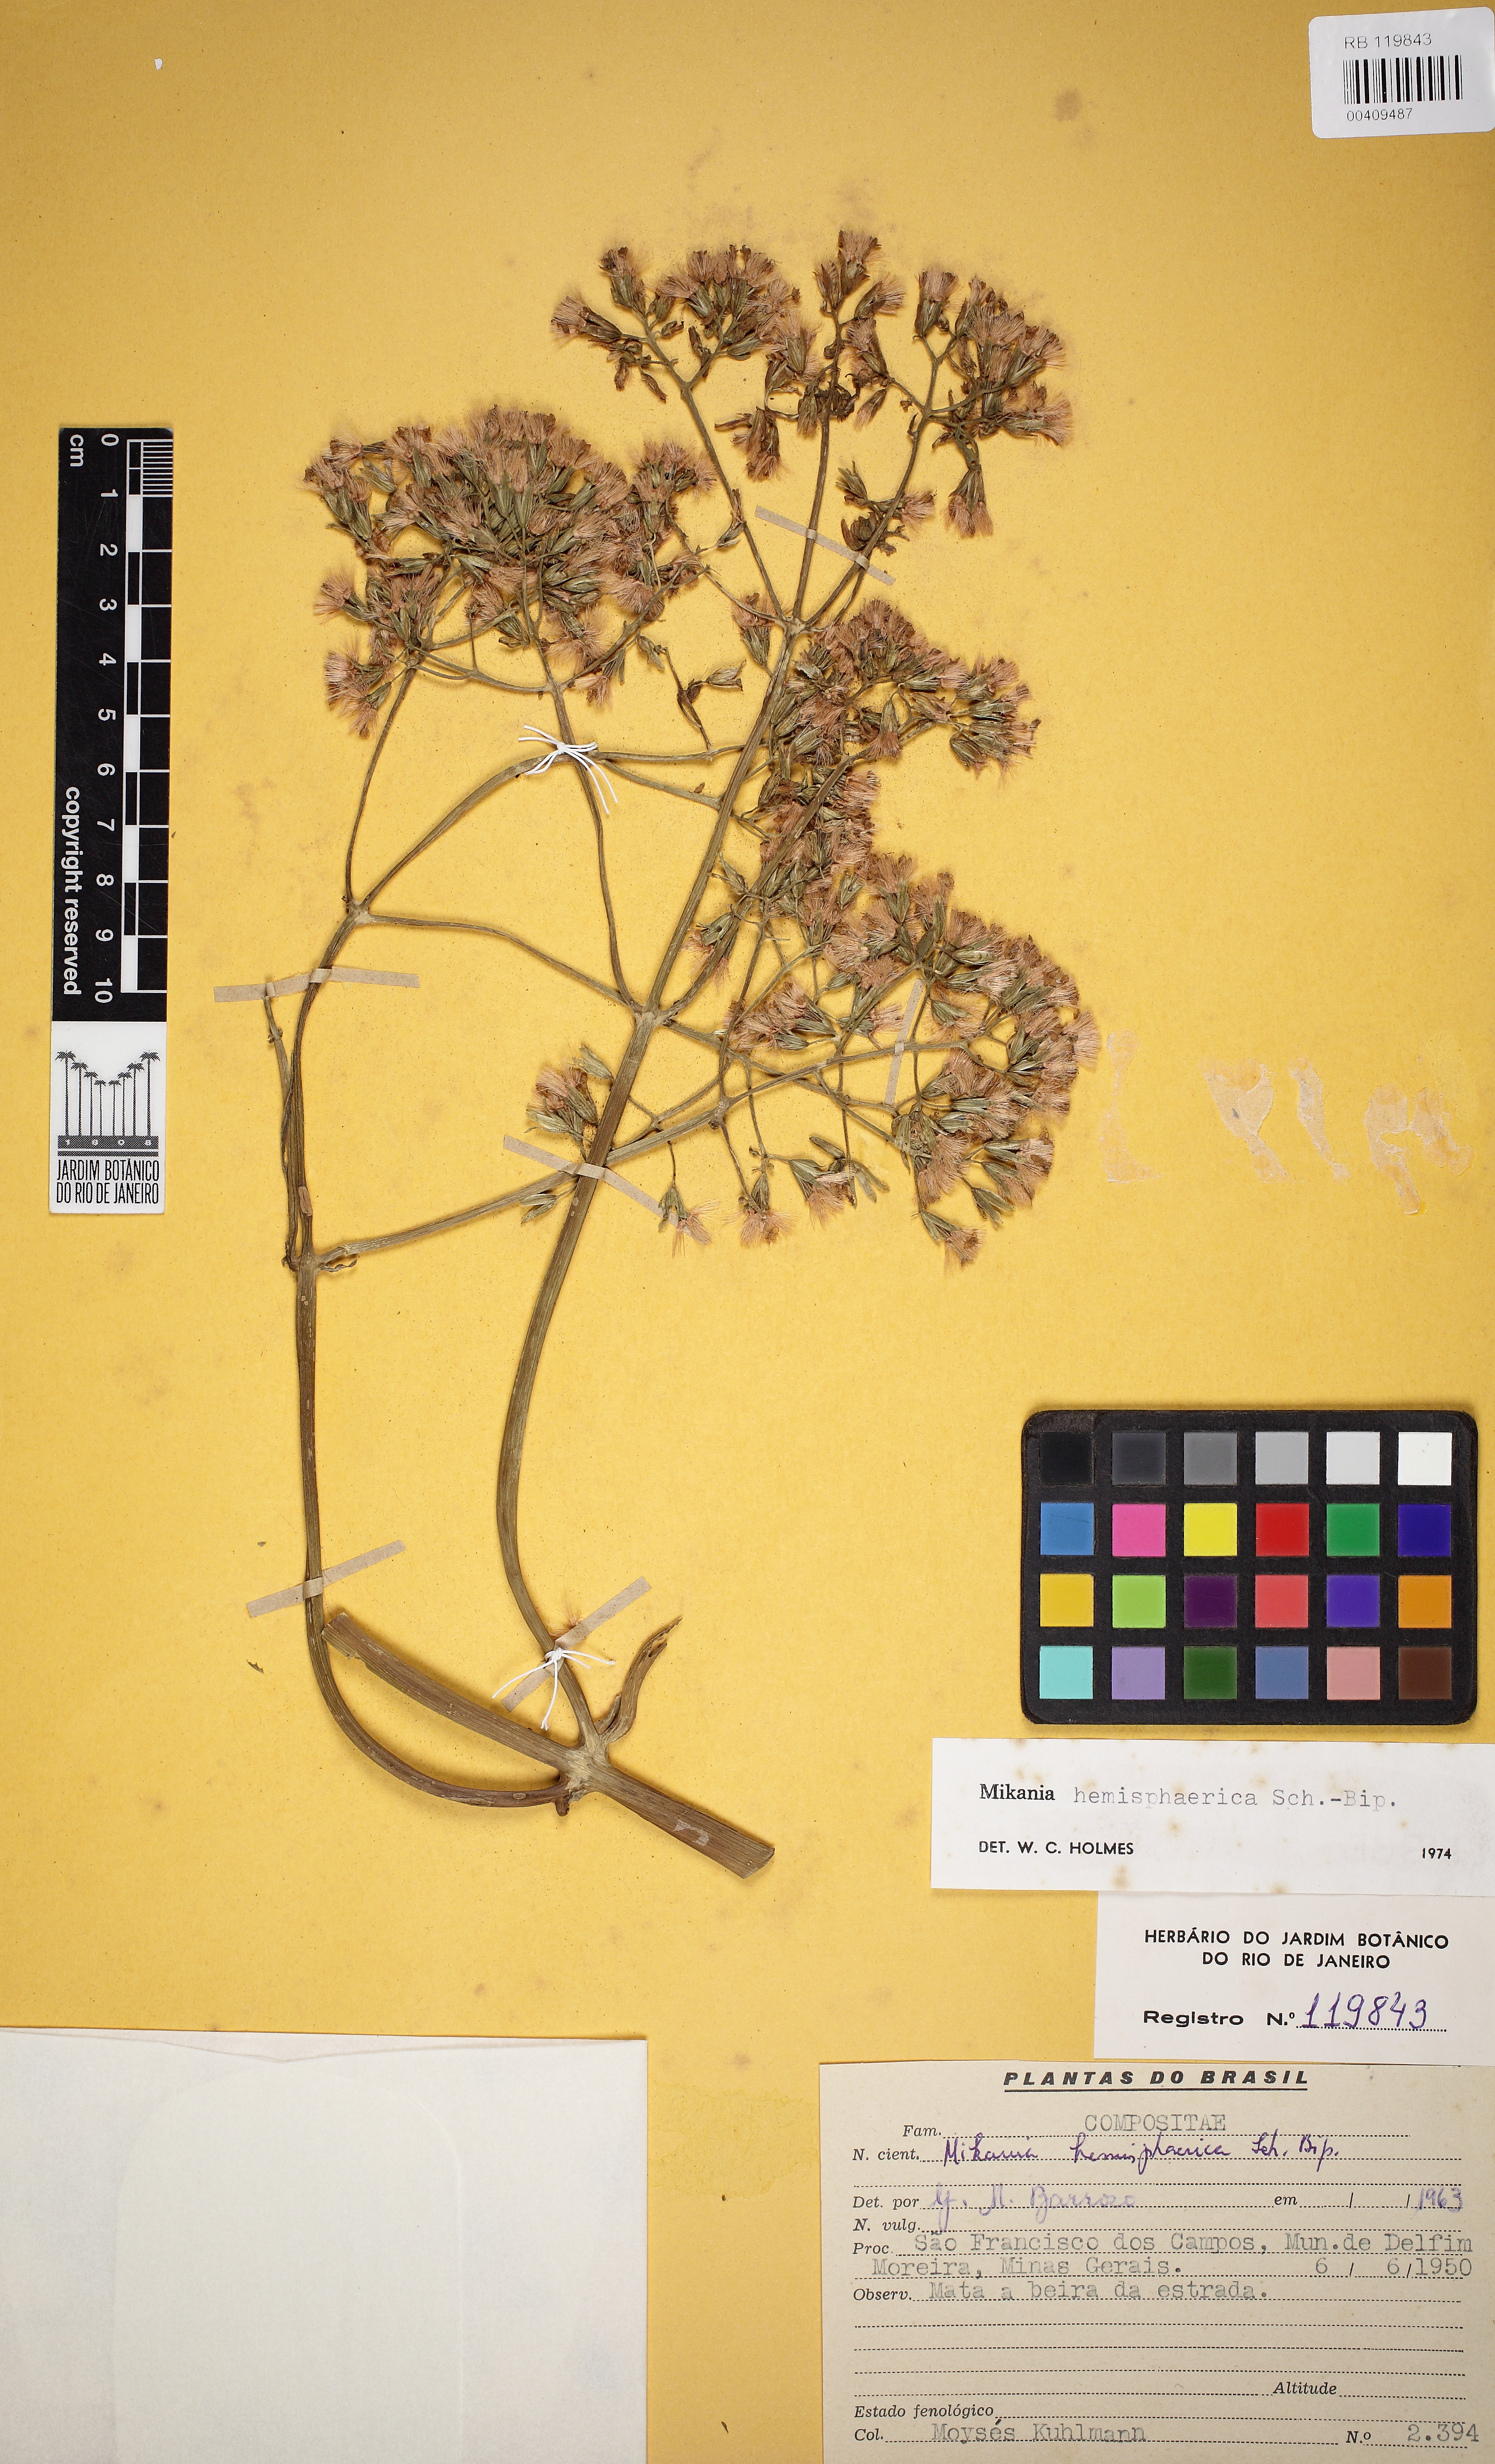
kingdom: Plantae
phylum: Tracheophyta
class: Magnoliopsida
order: Asterales
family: Asteraceae
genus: Mikania
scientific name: Mikania hemisphaerica
